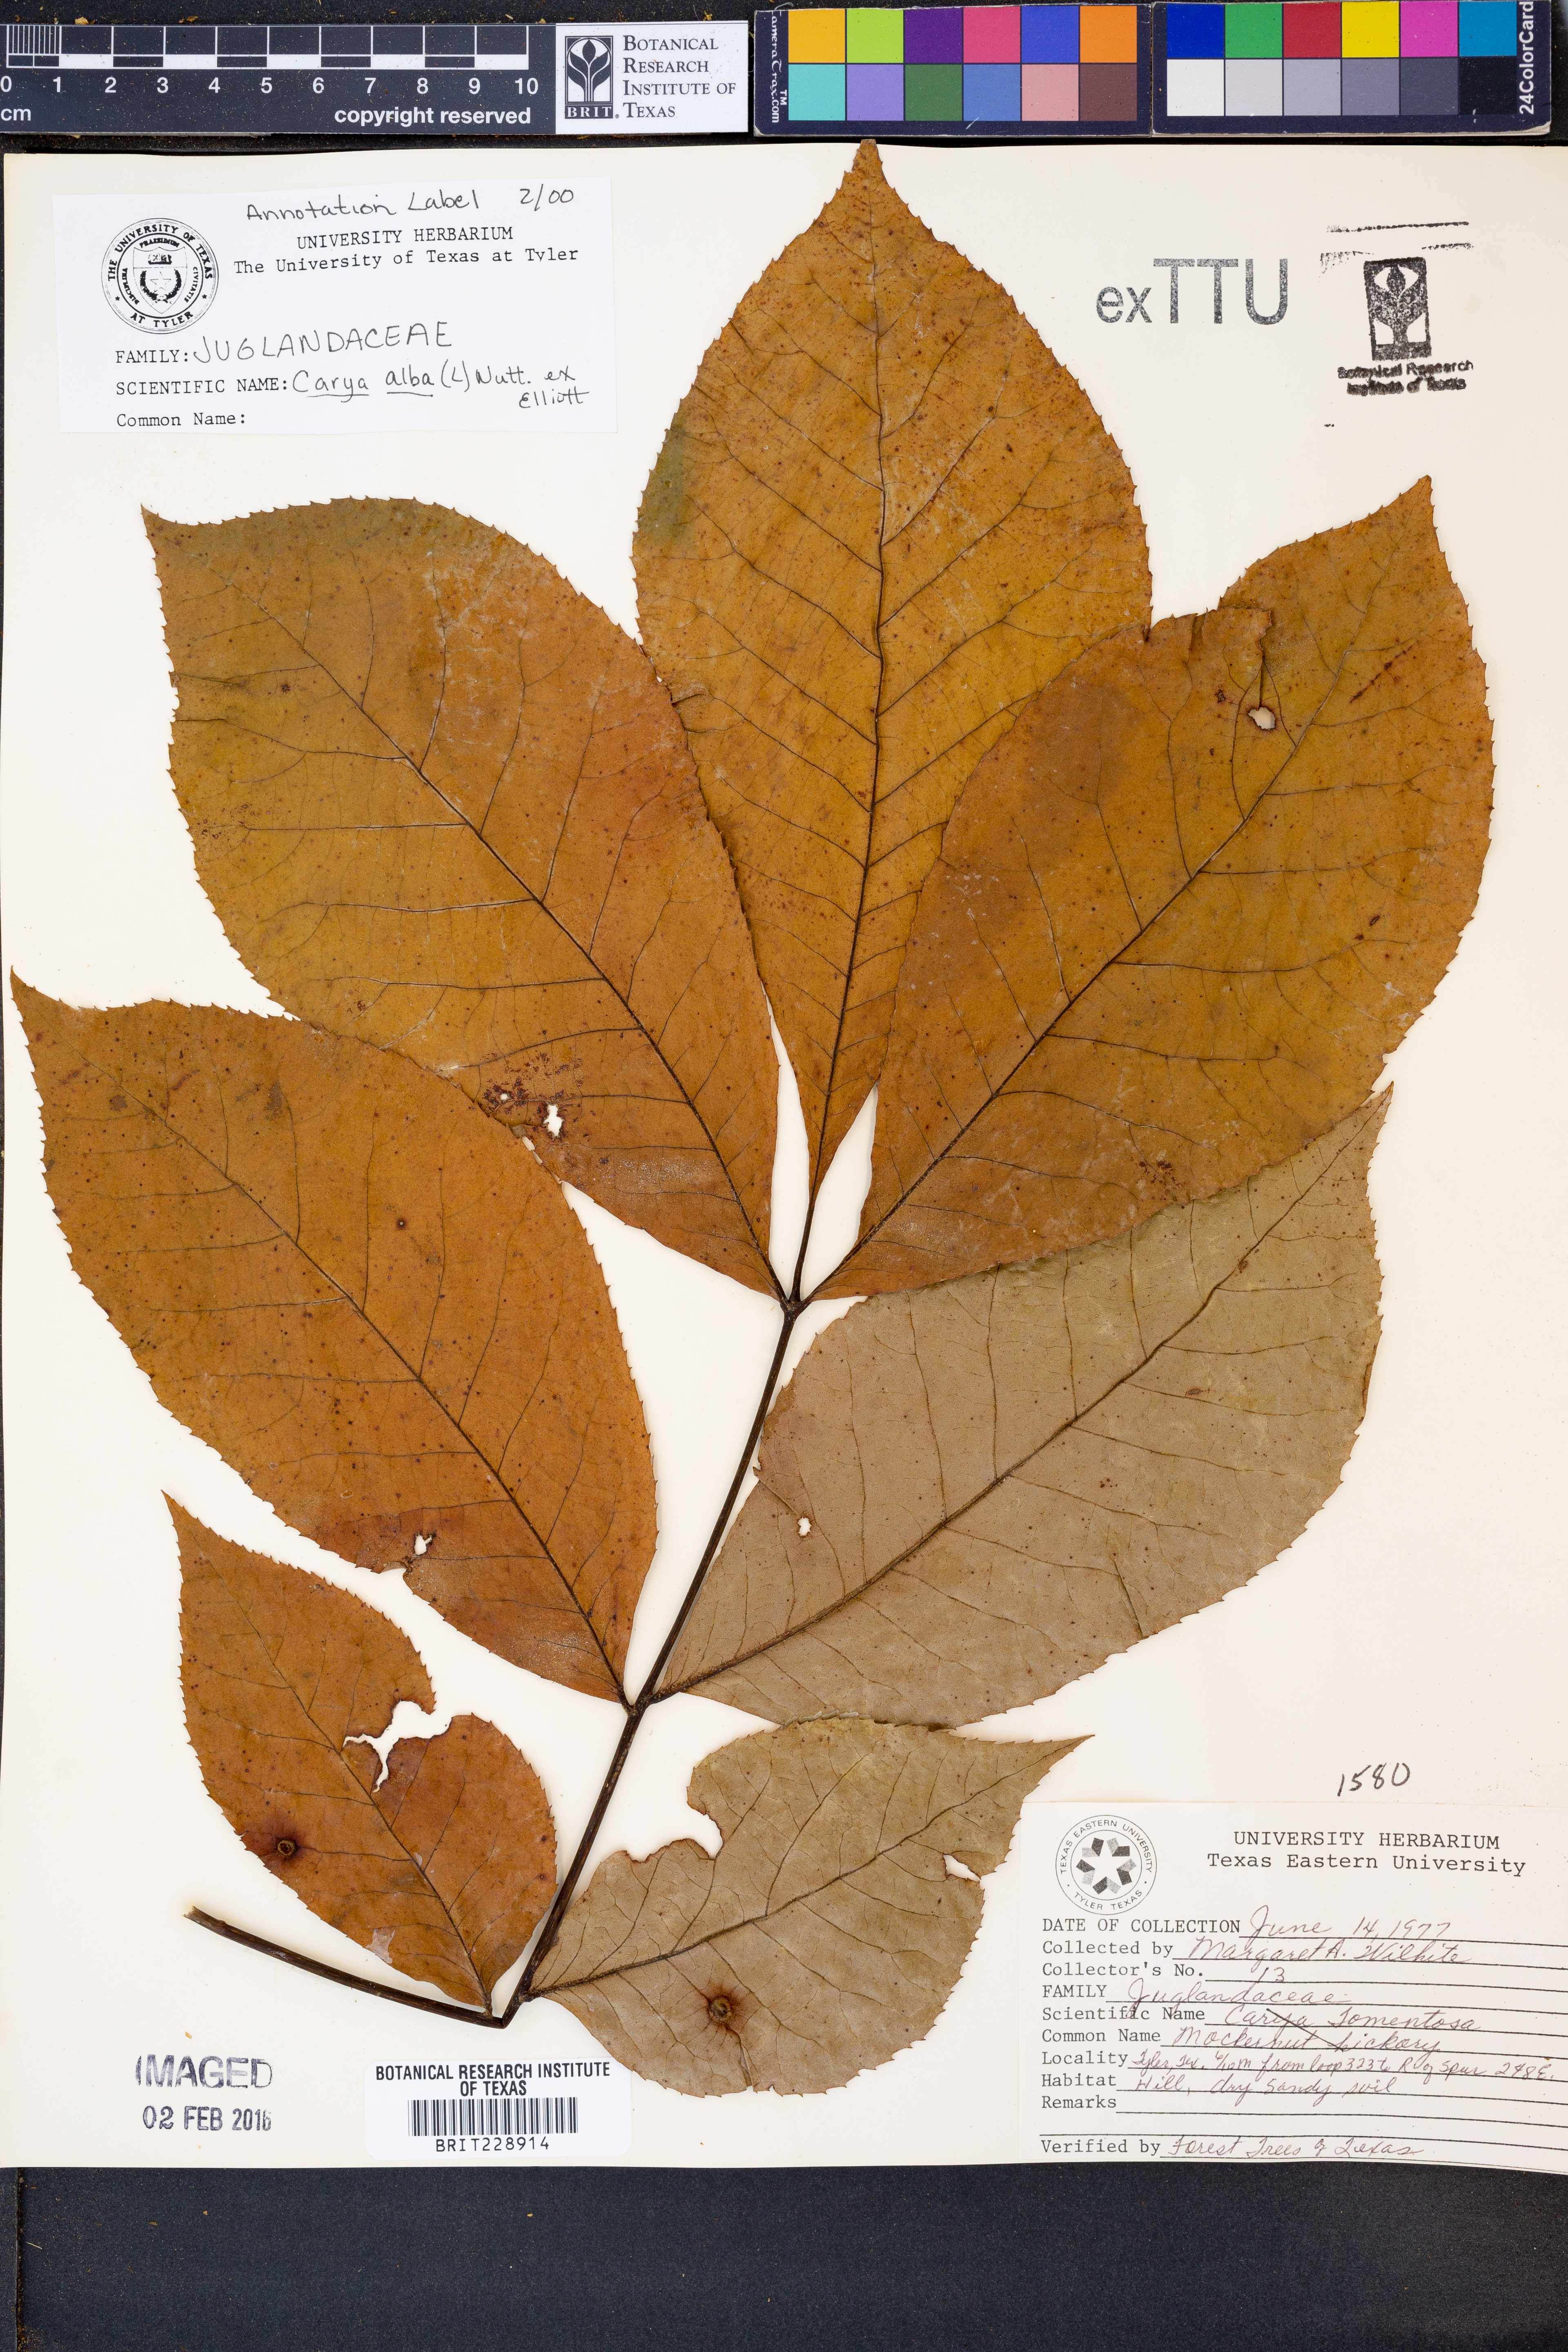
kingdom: Plantae
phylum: Tracheophyta
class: Magnoliopsida
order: Fagales
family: Juglandaceae
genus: Carya
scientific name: Carya alba
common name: Mockernut hickory
